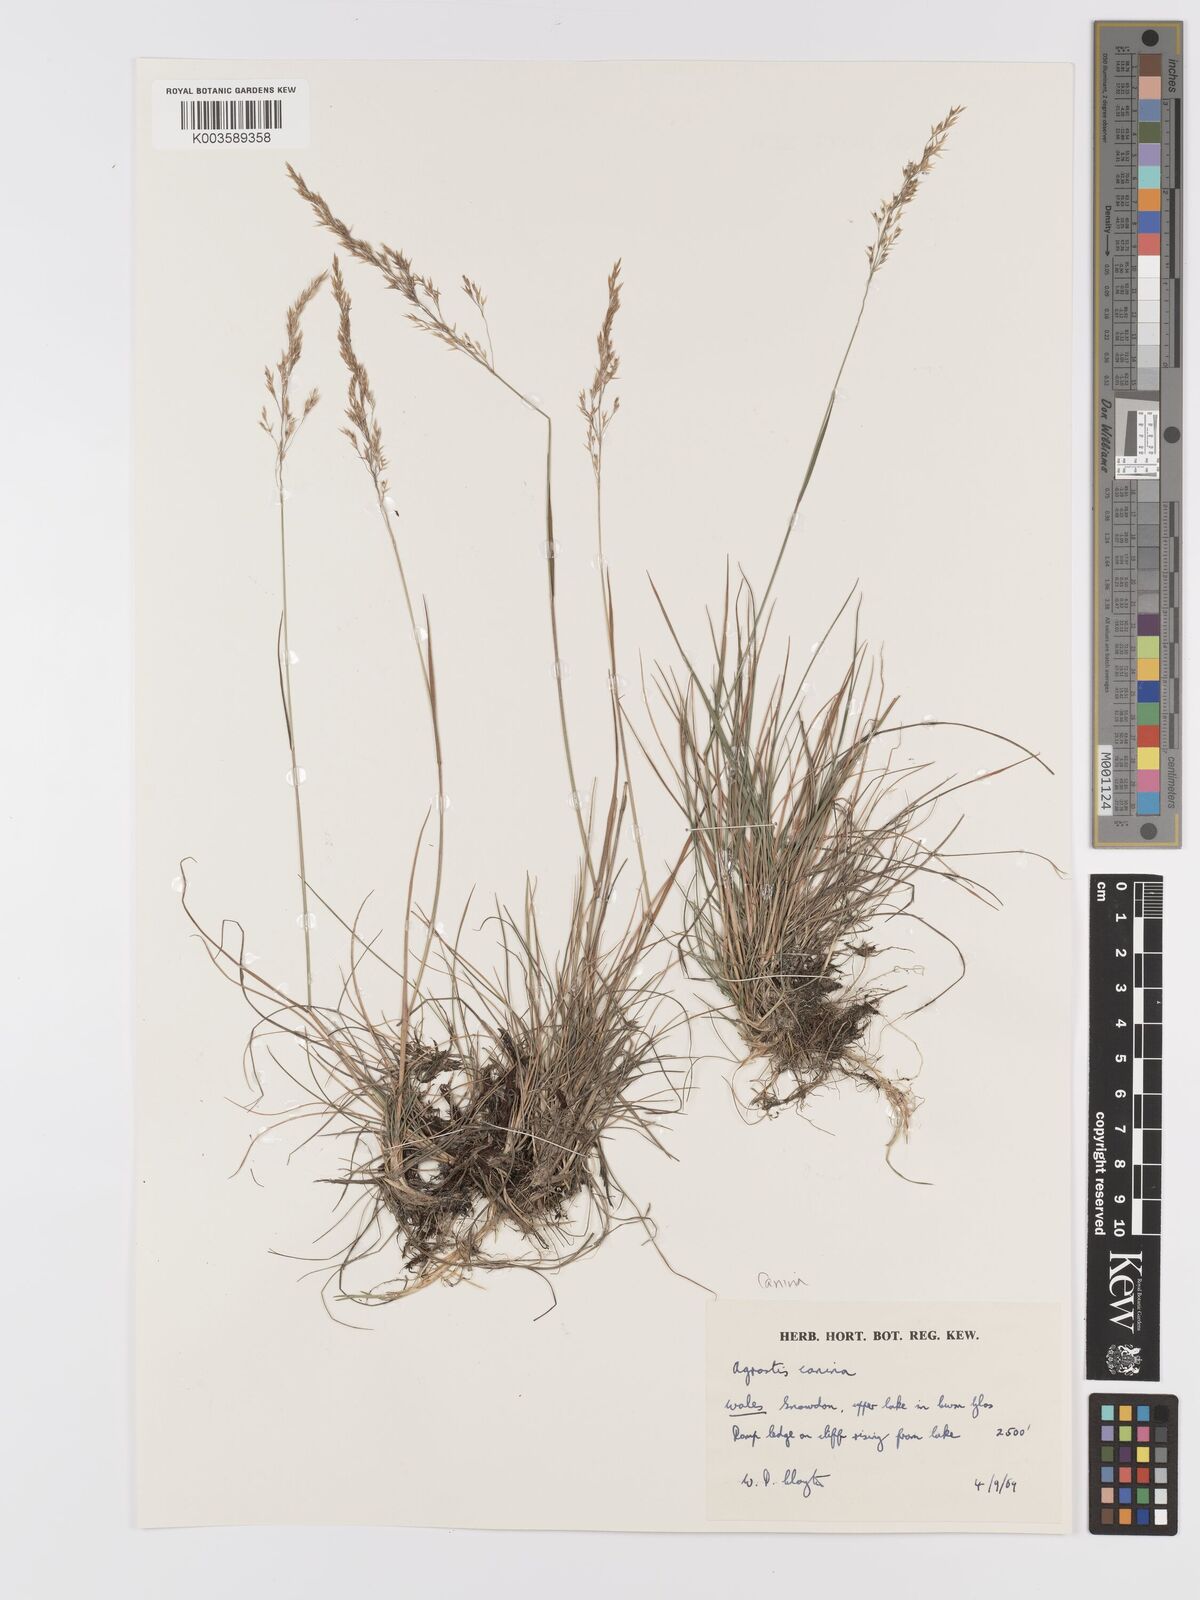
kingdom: Plantae
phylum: Tracheophyta
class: Liliopsida
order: Poales
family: Poaceae
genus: Agrostis
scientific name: Agrostis canina
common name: Velvet bent
